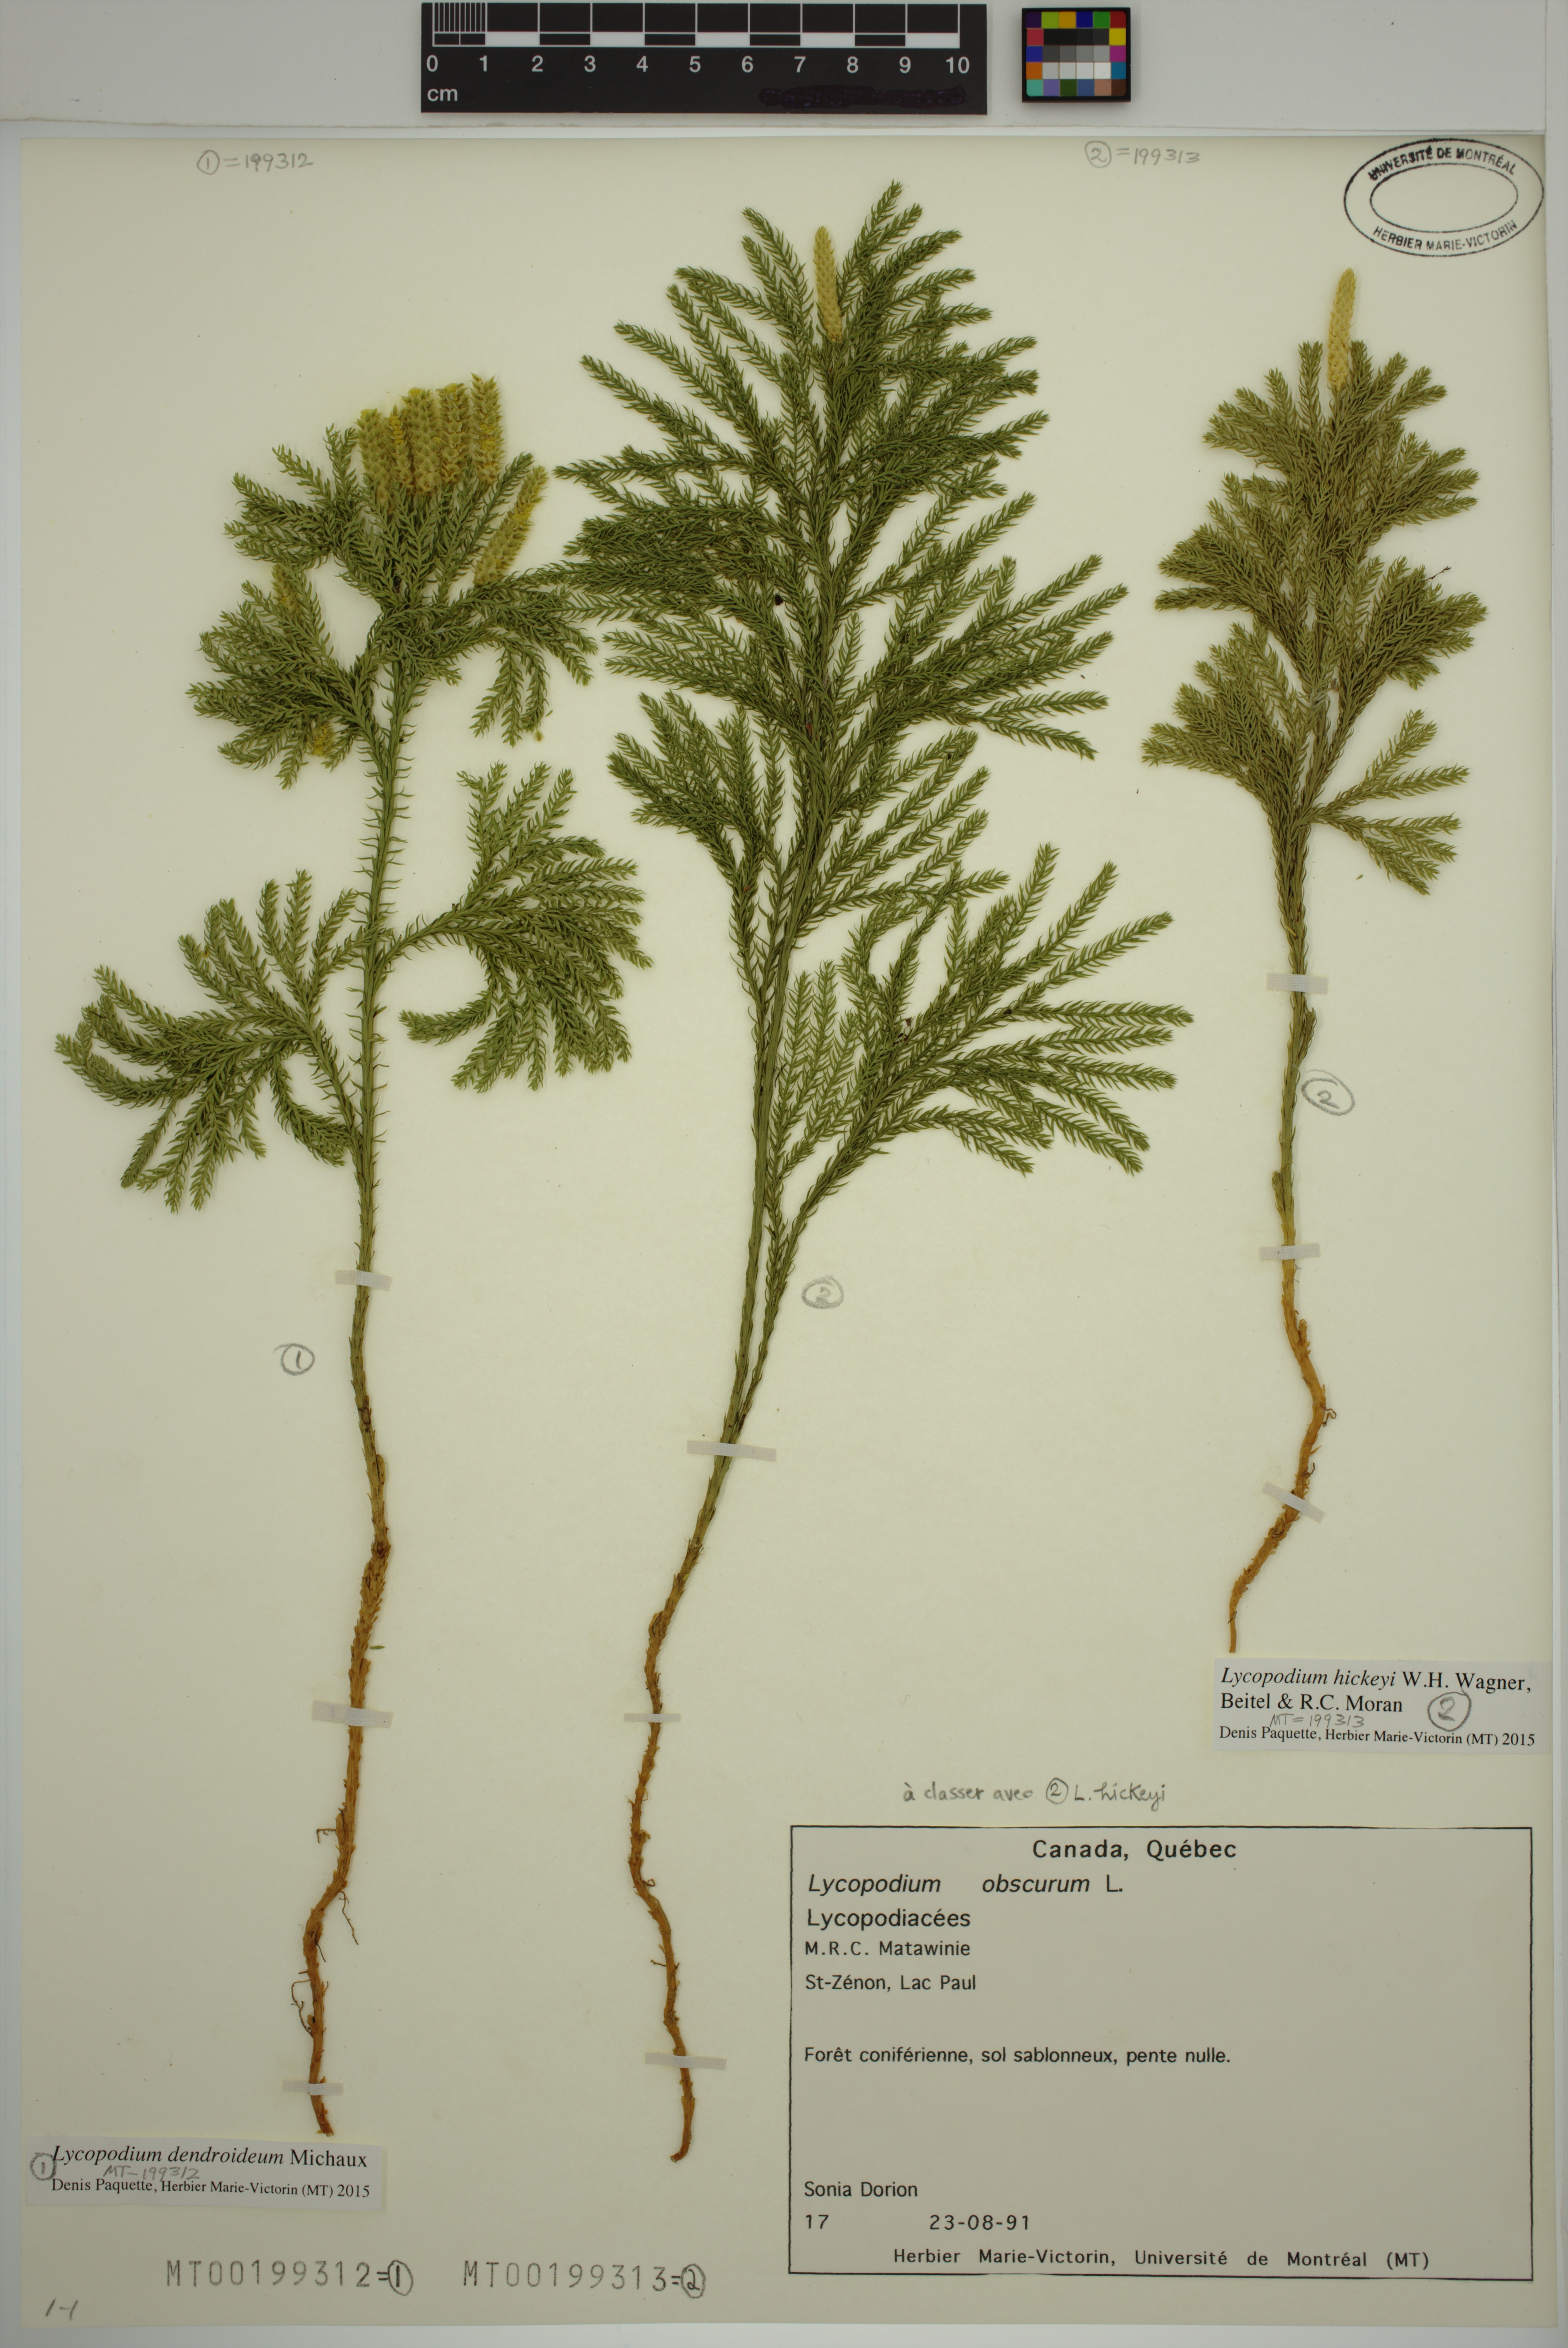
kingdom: Plantae
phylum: Tracheophyta
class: Lycopodiopsida
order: Lycopodiales
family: Lycopodiaceae
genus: Dendrolycopodium
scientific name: Dendrolycopodium dendroideum
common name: Northern tree-clubmoss
